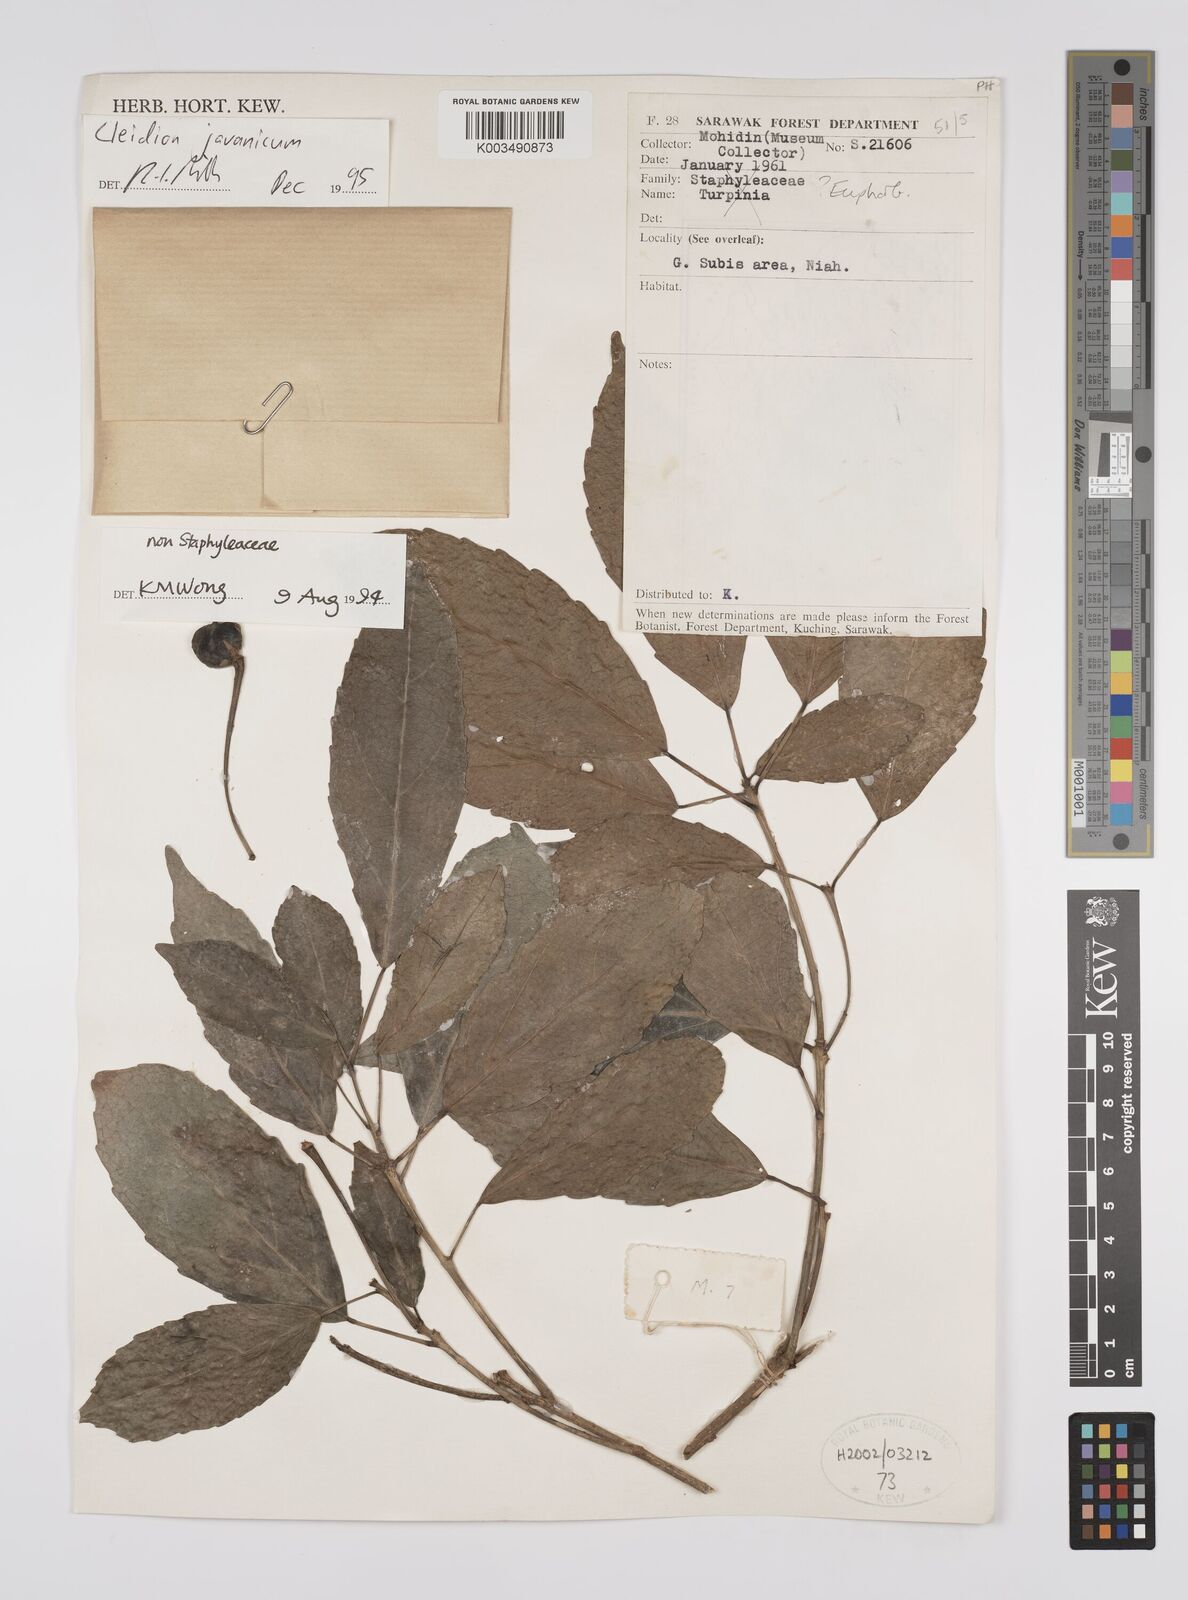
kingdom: Plantae
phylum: Tracheophyta
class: Magnoliopsida
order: Malpighiales
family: Euphorbiaceae
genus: Acalypha
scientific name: Acalypha spiciflora
